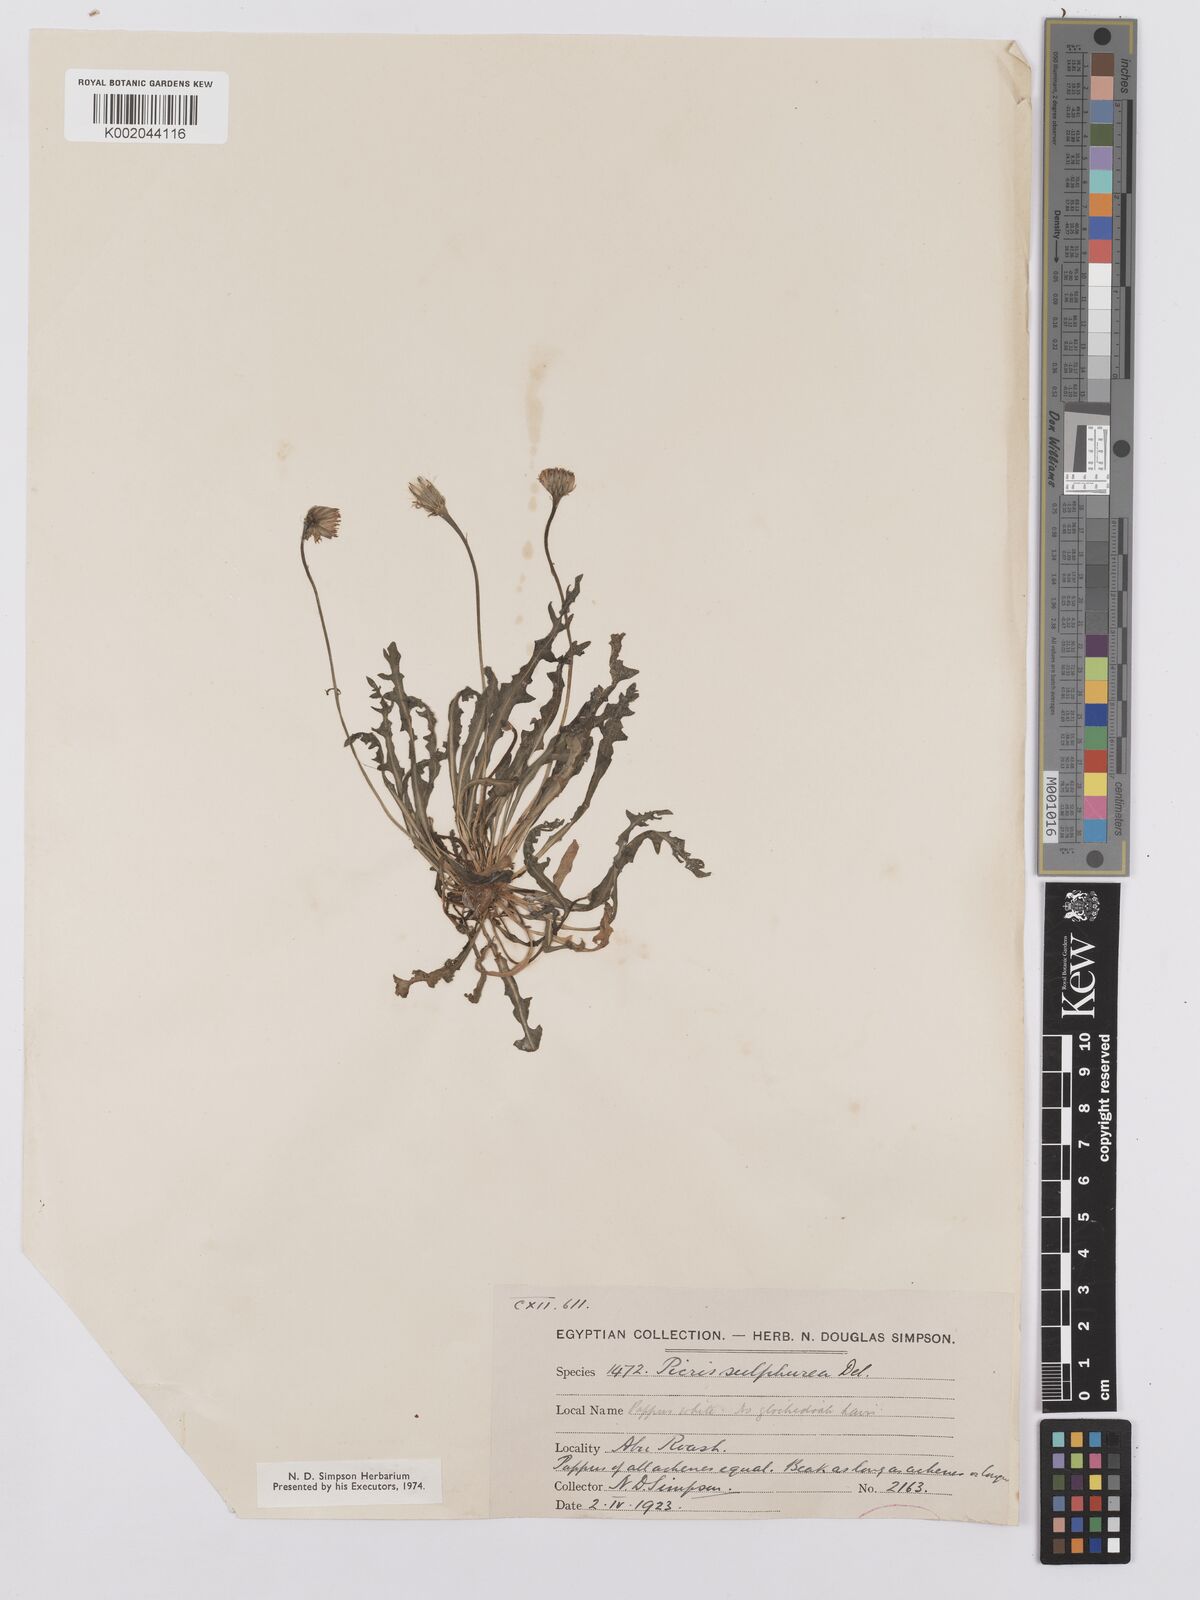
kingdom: Plantae
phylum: Tracheophyta
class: Magnoliopsida
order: Asterales
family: Asteraceae
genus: Picris
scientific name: Picris sulphurea
